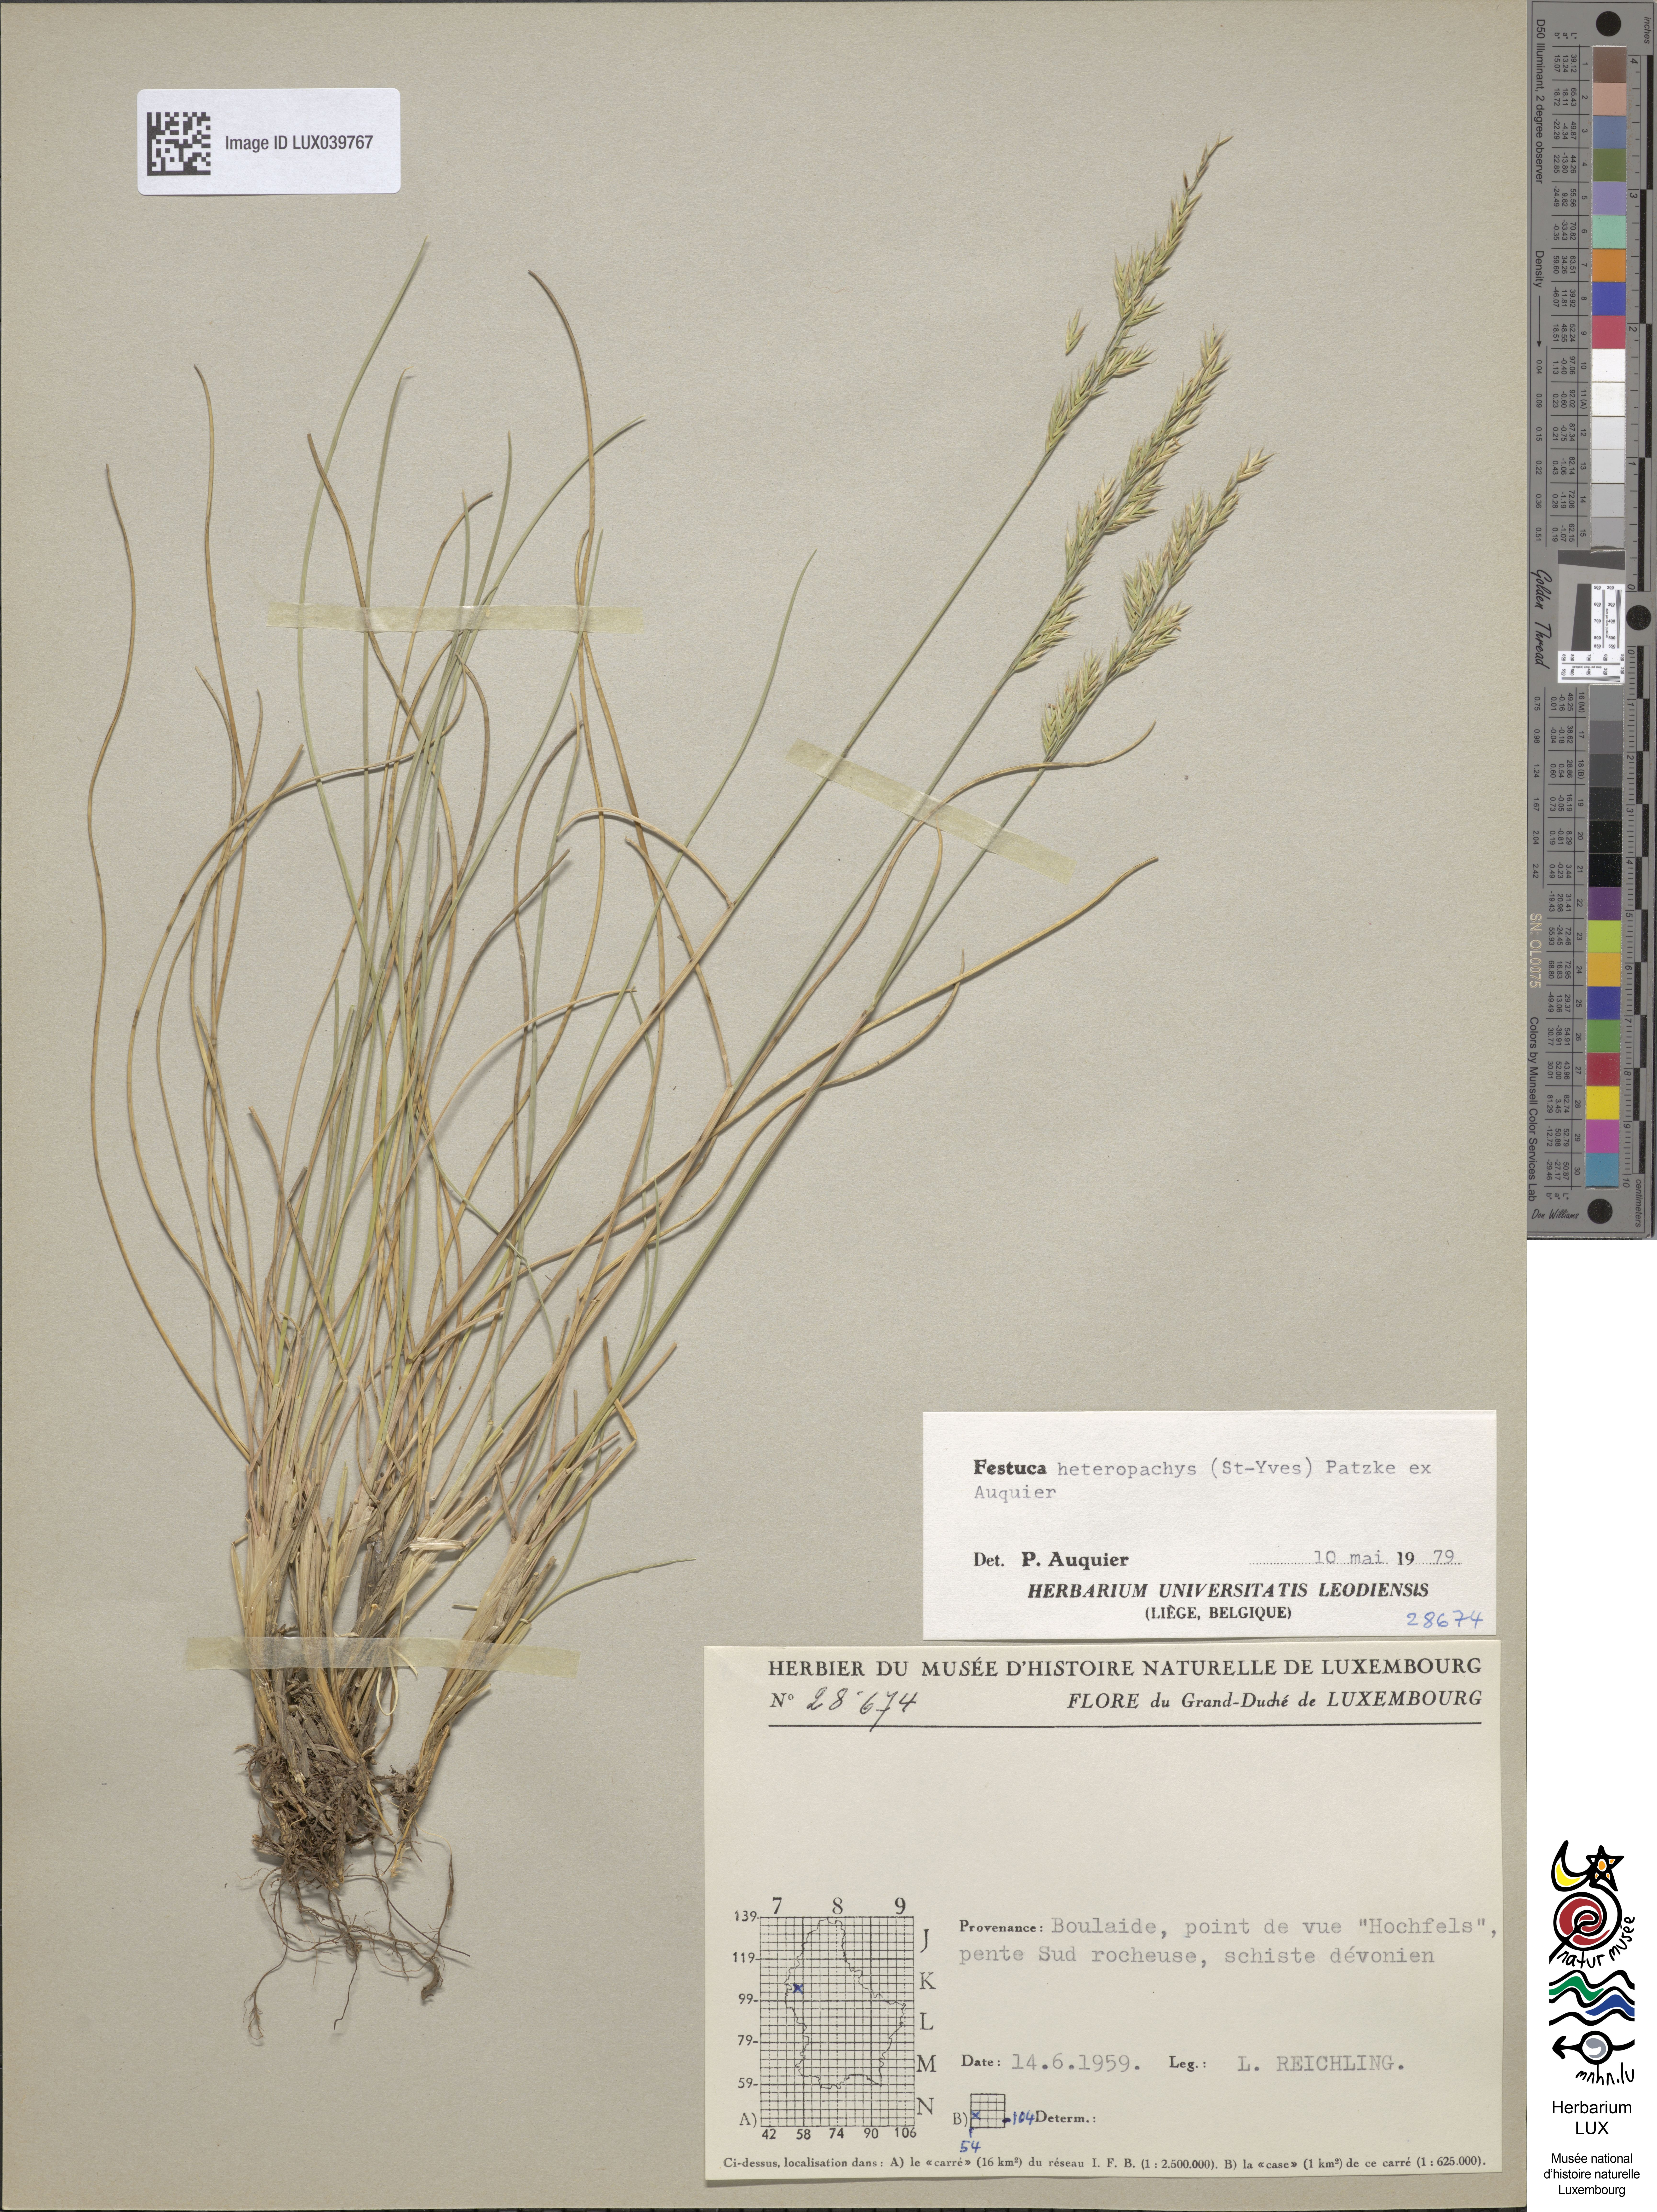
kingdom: Plantae
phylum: Tracheophyta
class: Liliopsida
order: Poales
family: Poaceae
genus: Festuca
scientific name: Festuca heteropachys
